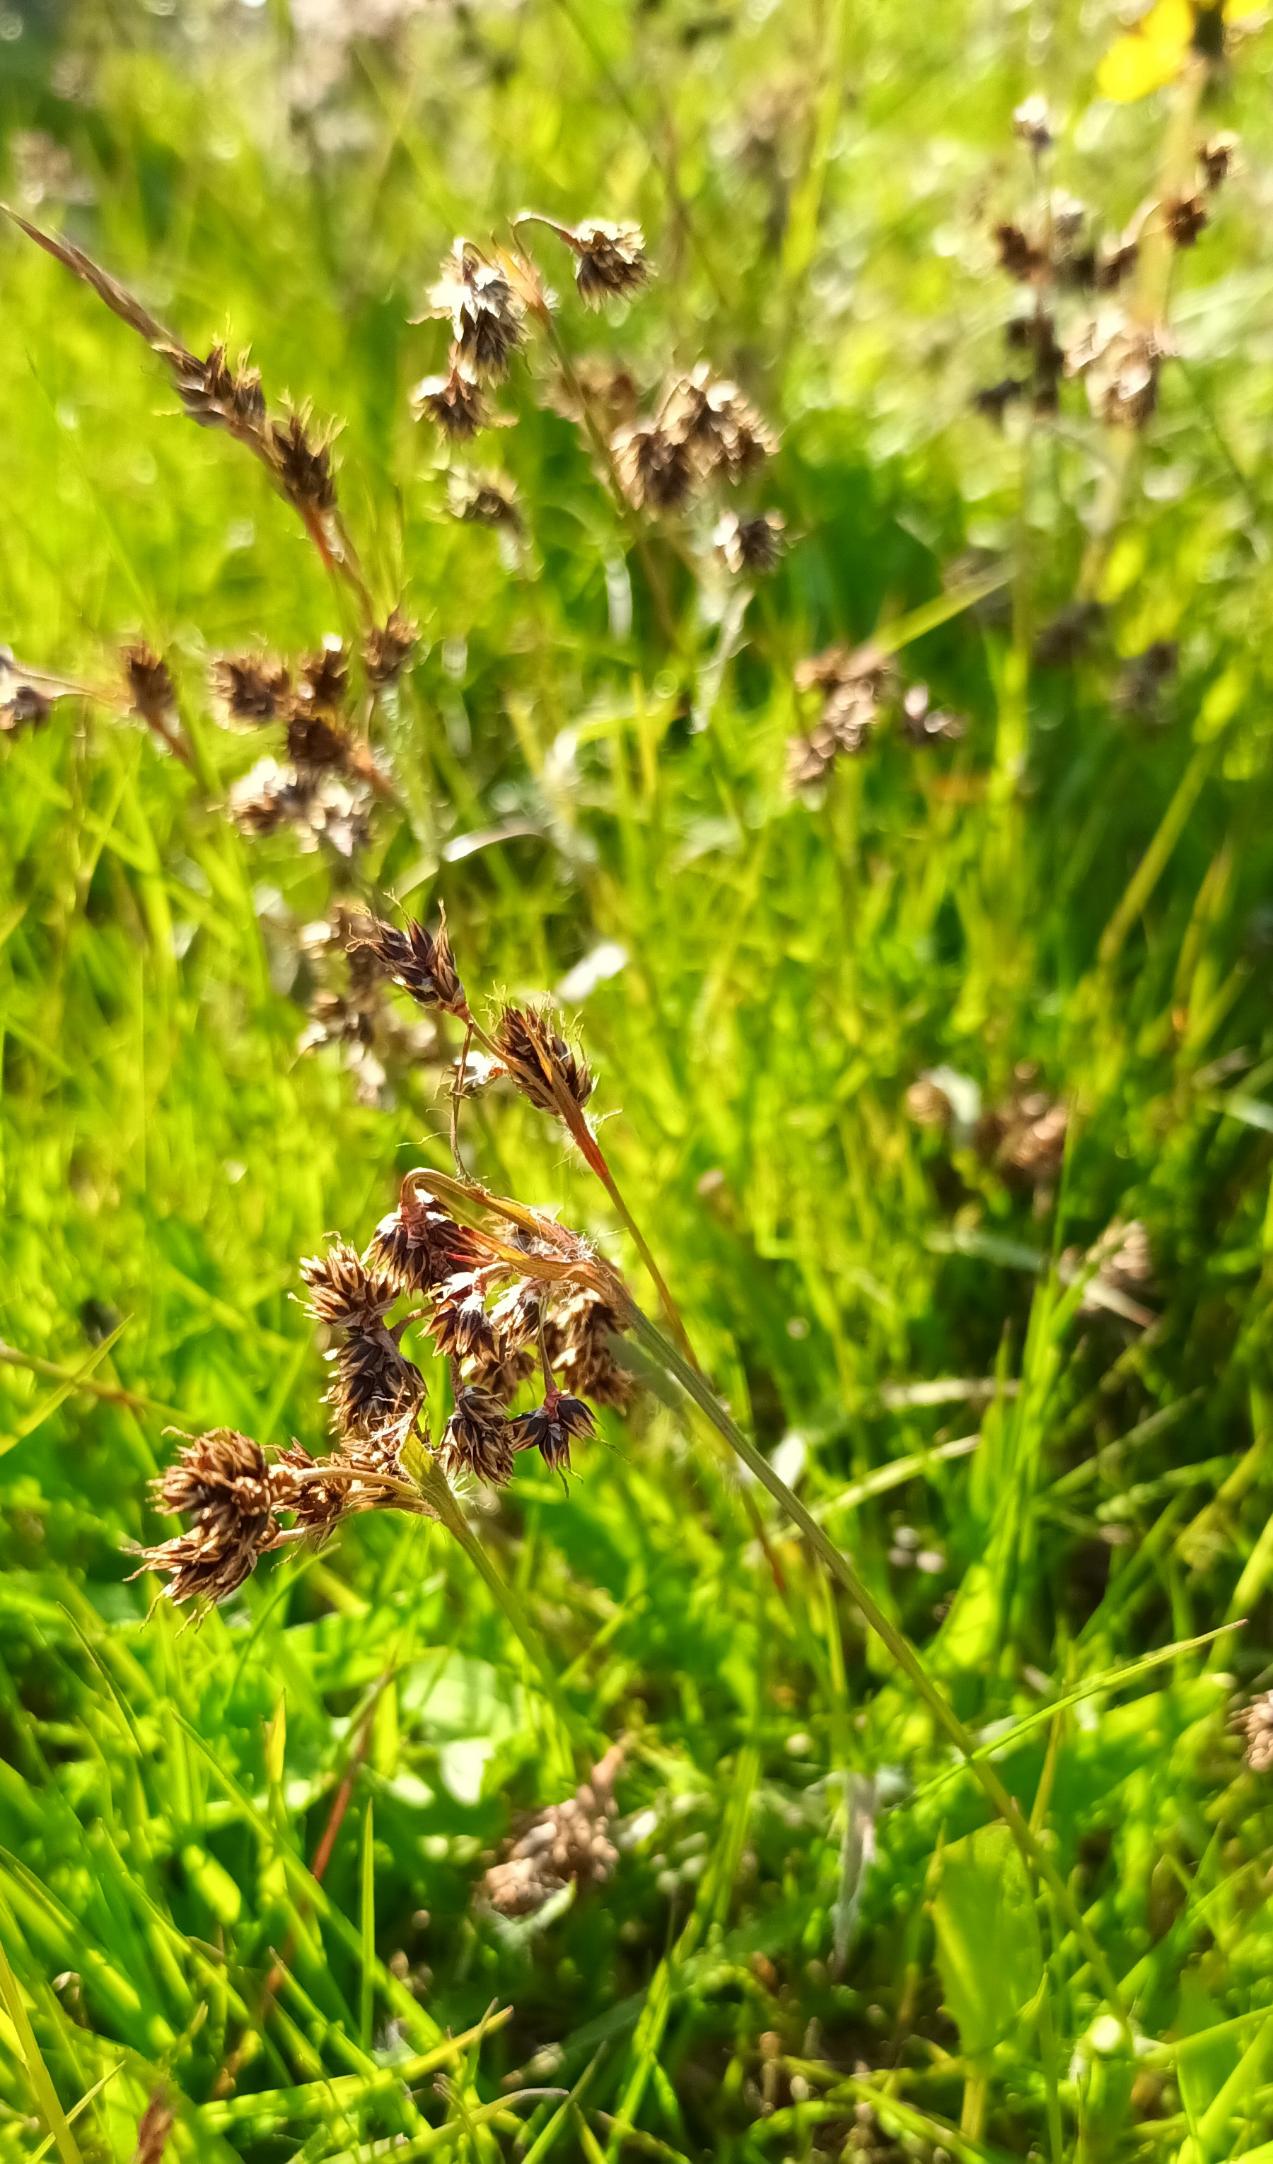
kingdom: Plantae
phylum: Tracheophyta
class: Liliopsida
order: Poales
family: Juncaceae
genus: Luzula
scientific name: Luzula campestris
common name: Mark-frytle
